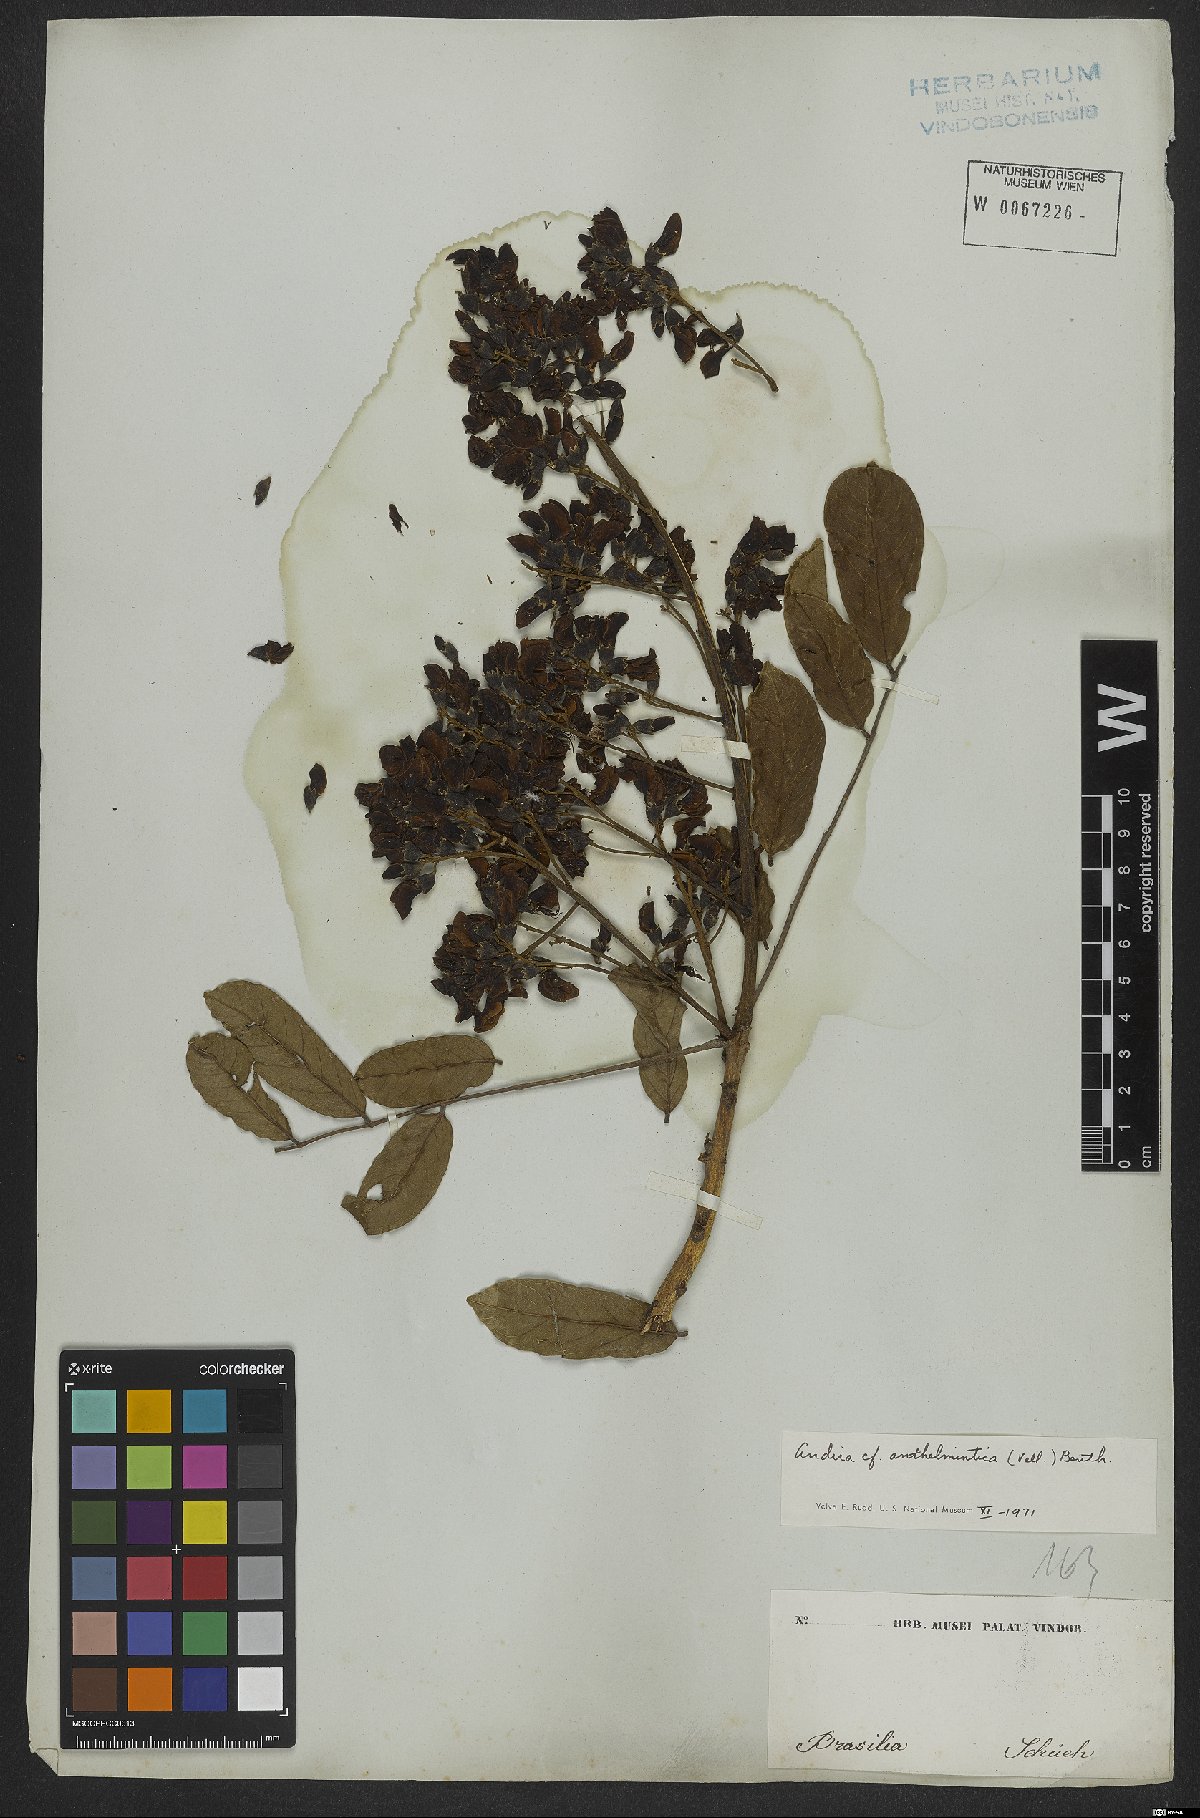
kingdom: Plantae
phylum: Tracheophyta
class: Magnoliopsida
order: Fabales
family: Fabaceae
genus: Andira
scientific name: Andira anthelmia
